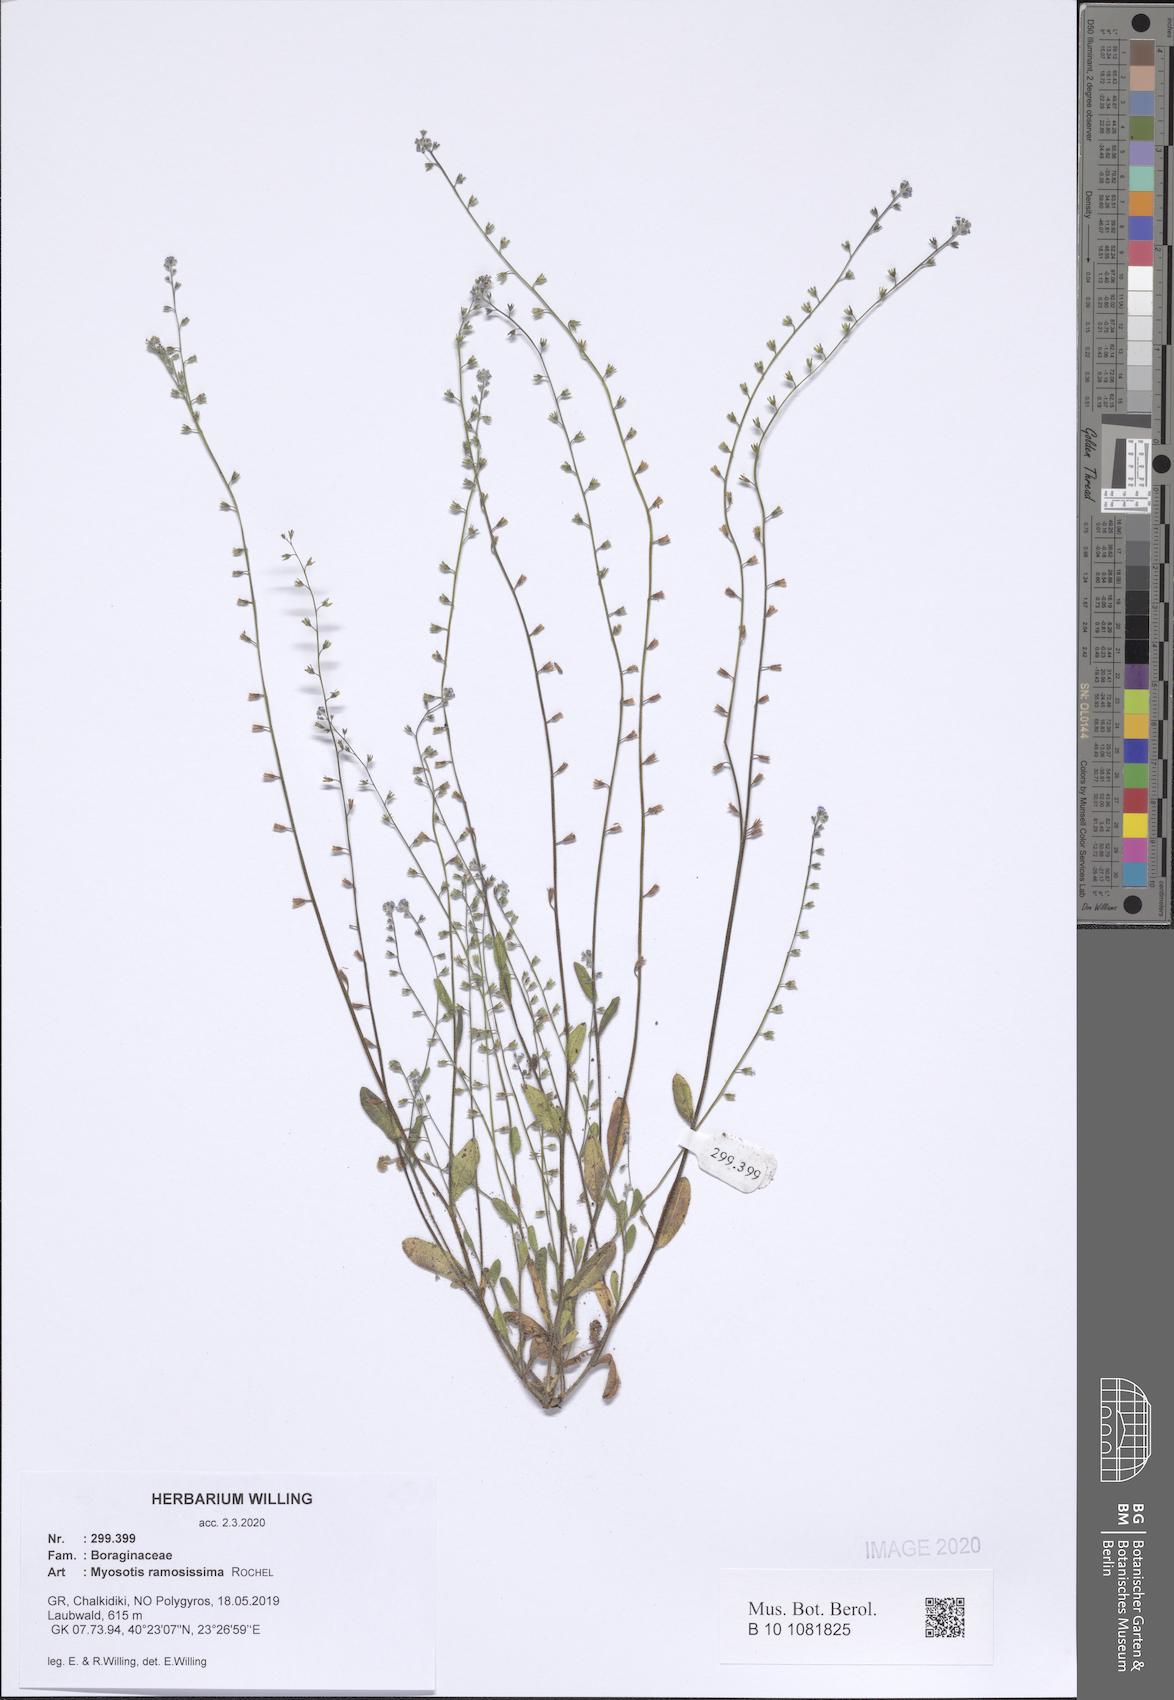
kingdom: Plantae
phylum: Tracheophyta
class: Magnoliopsida
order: Boraginales
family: Boraginaceae
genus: Myosotis
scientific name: Myosotis ramosissima
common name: Early forget-me-not
